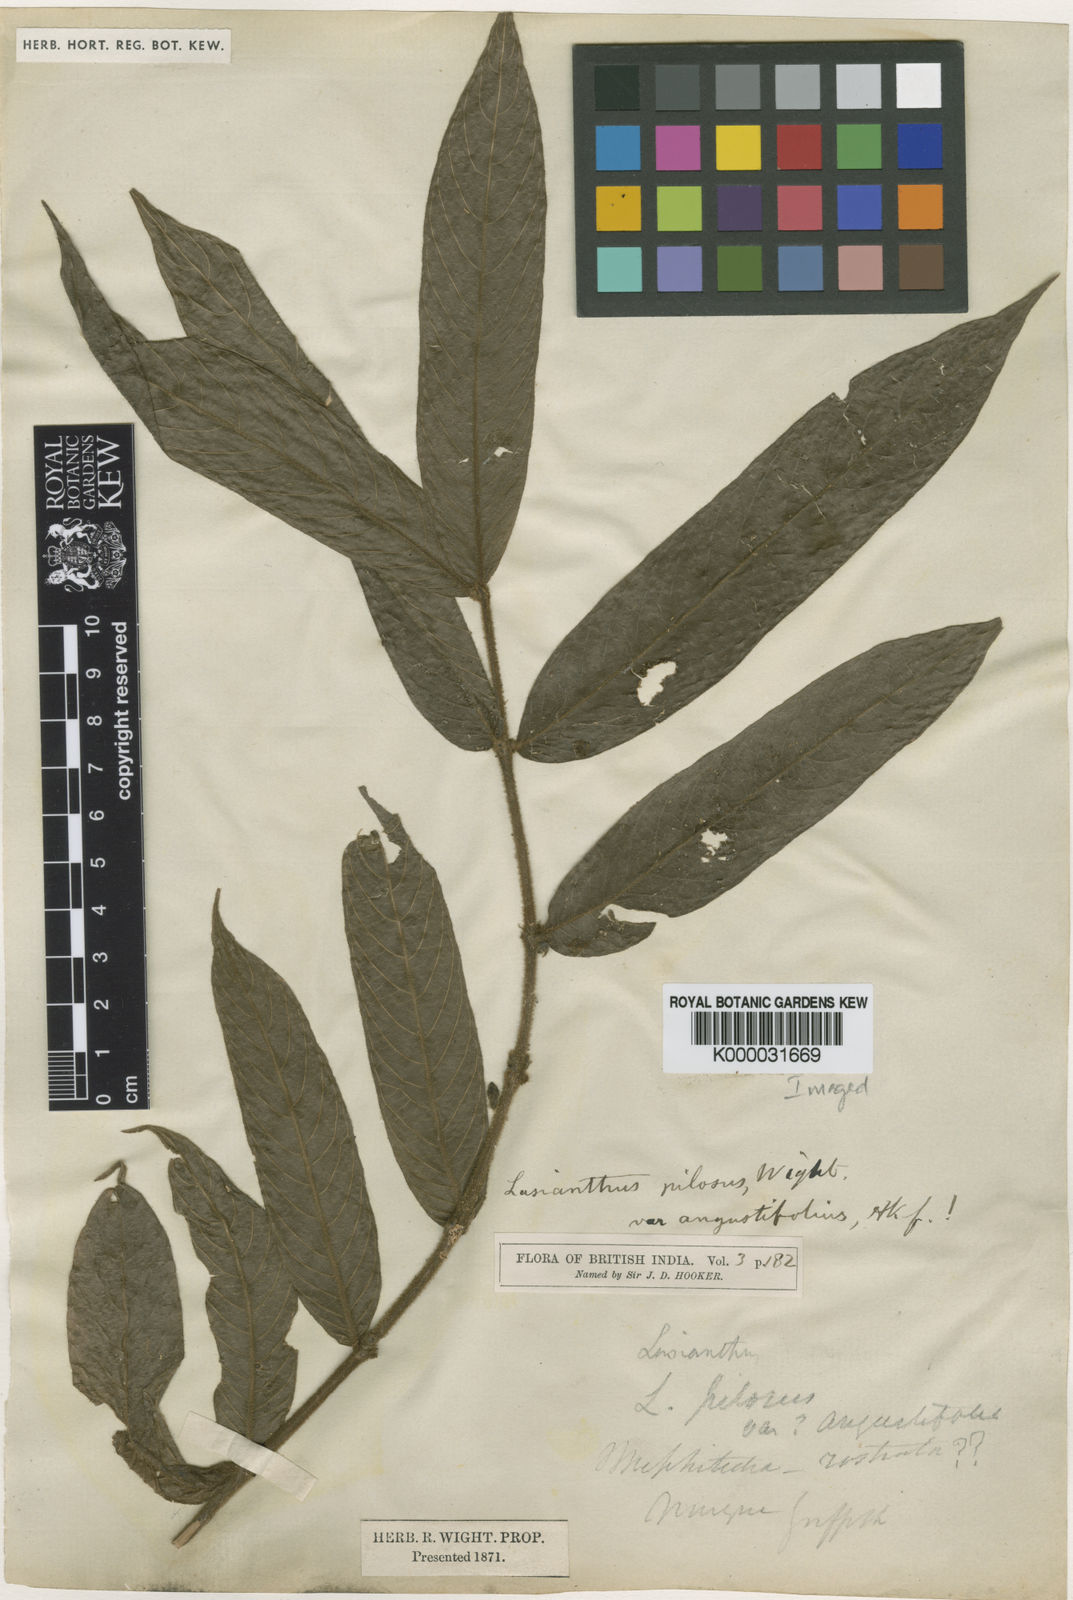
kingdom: Plantae
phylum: Tracheophyta
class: Magnoliopsida
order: Gentianales
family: Rubiaceae
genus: Lasianthus
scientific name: Lasianthus pilosus
